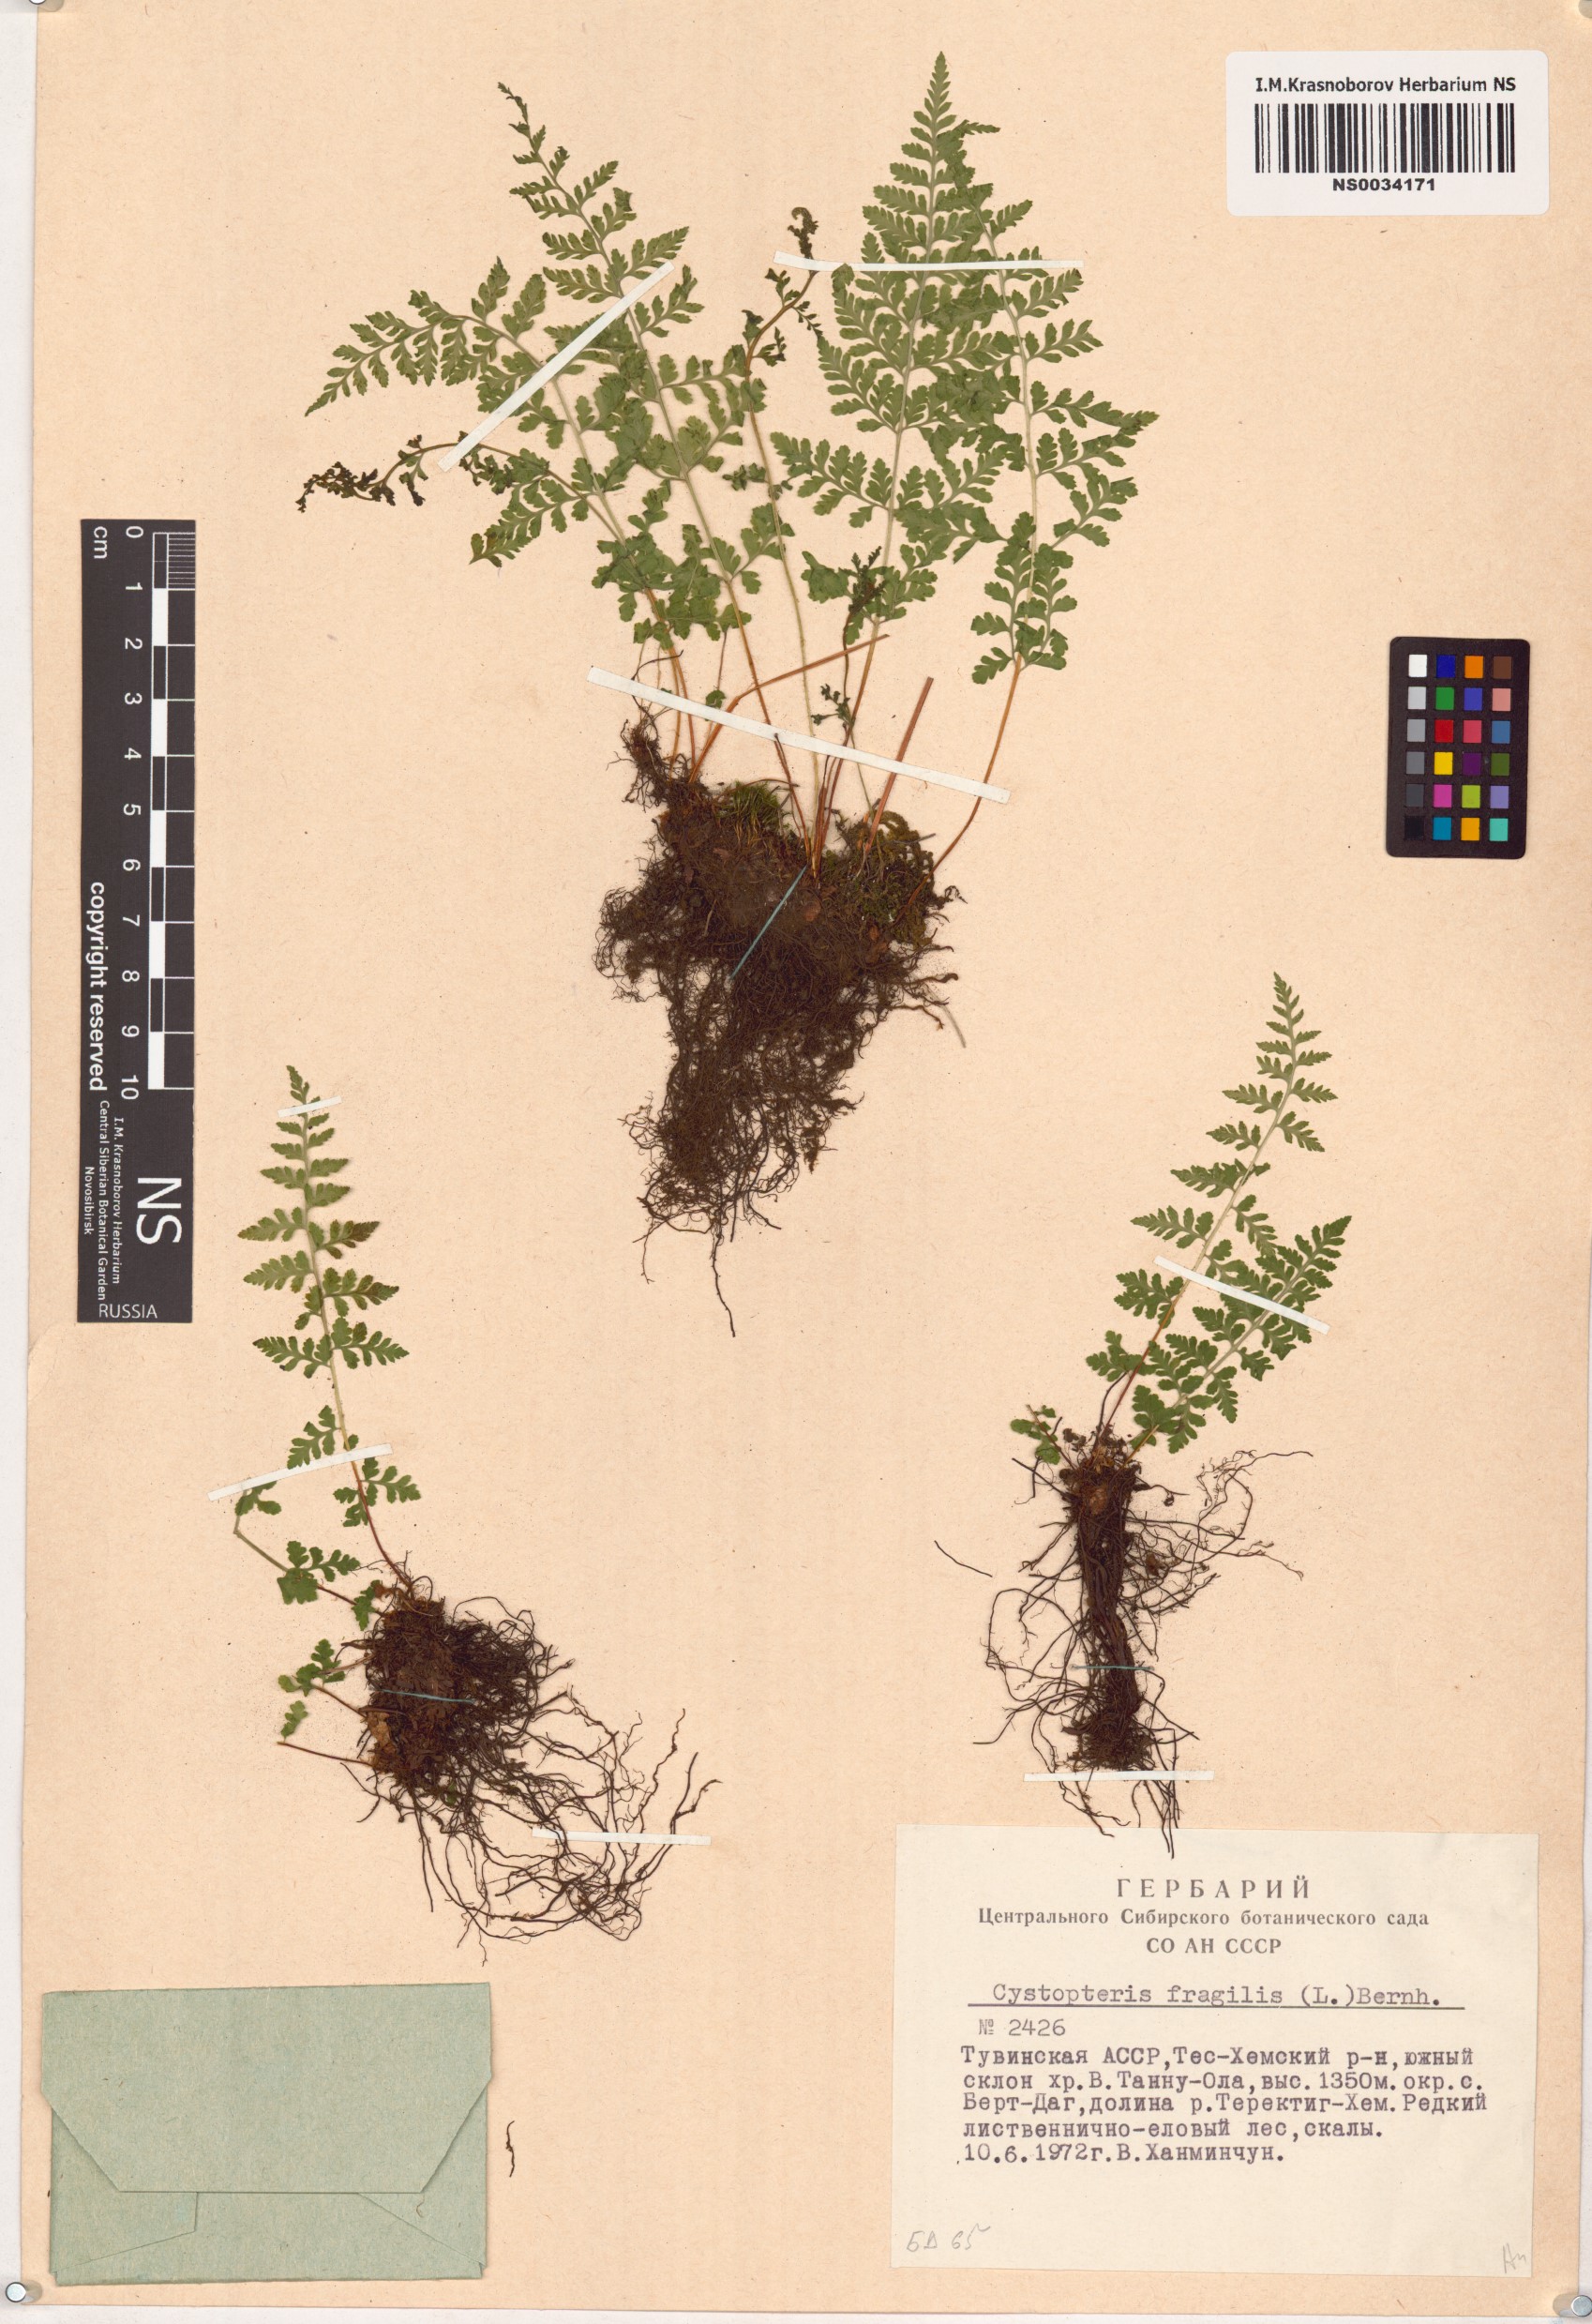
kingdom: Plantae
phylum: Tracheophyta
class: Polypodiopsida
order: Polypodiales
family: Cystopteridaceae
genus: Cystopteris
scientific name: Cystopteris fragilis
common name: Brittle bladder fern
